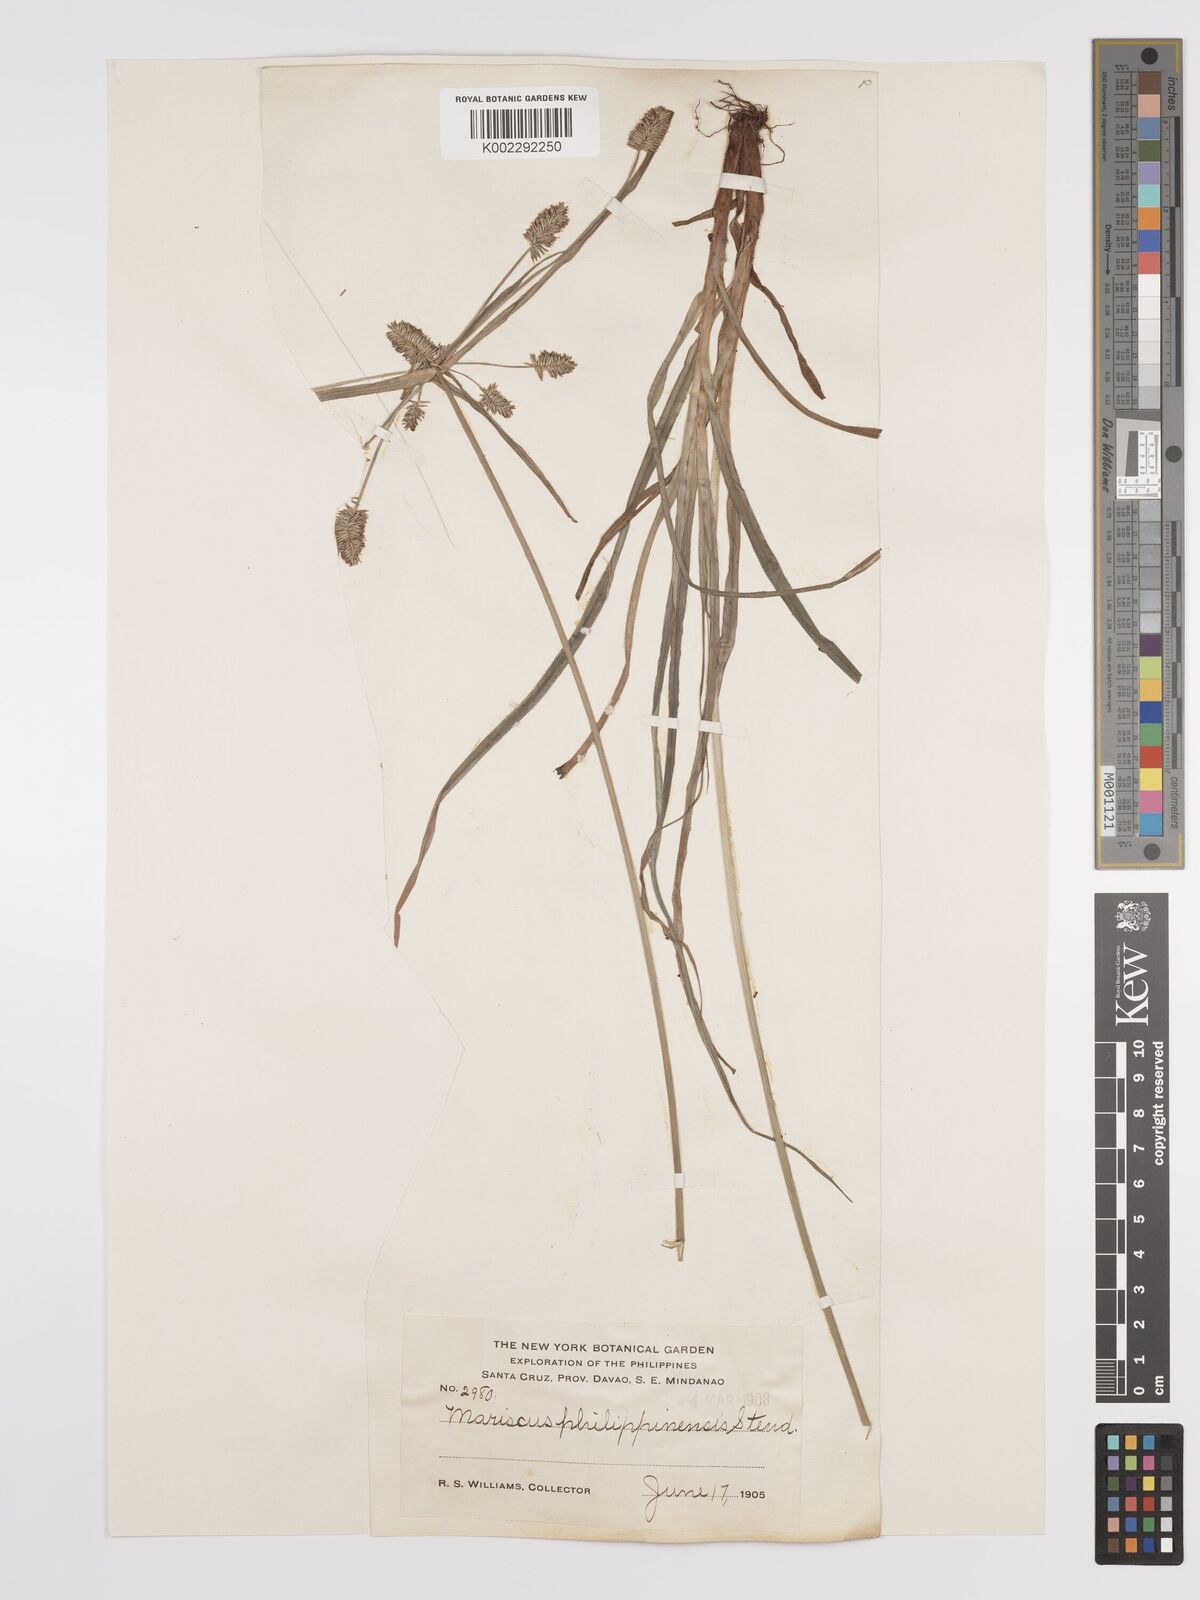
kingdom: Plantae
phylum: Tracheophyta
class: Liliopsida
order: Poales
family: Cyperaceae
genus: Cyperus
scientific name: Cyperus cyperoides
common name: Pacific island flat sedge
